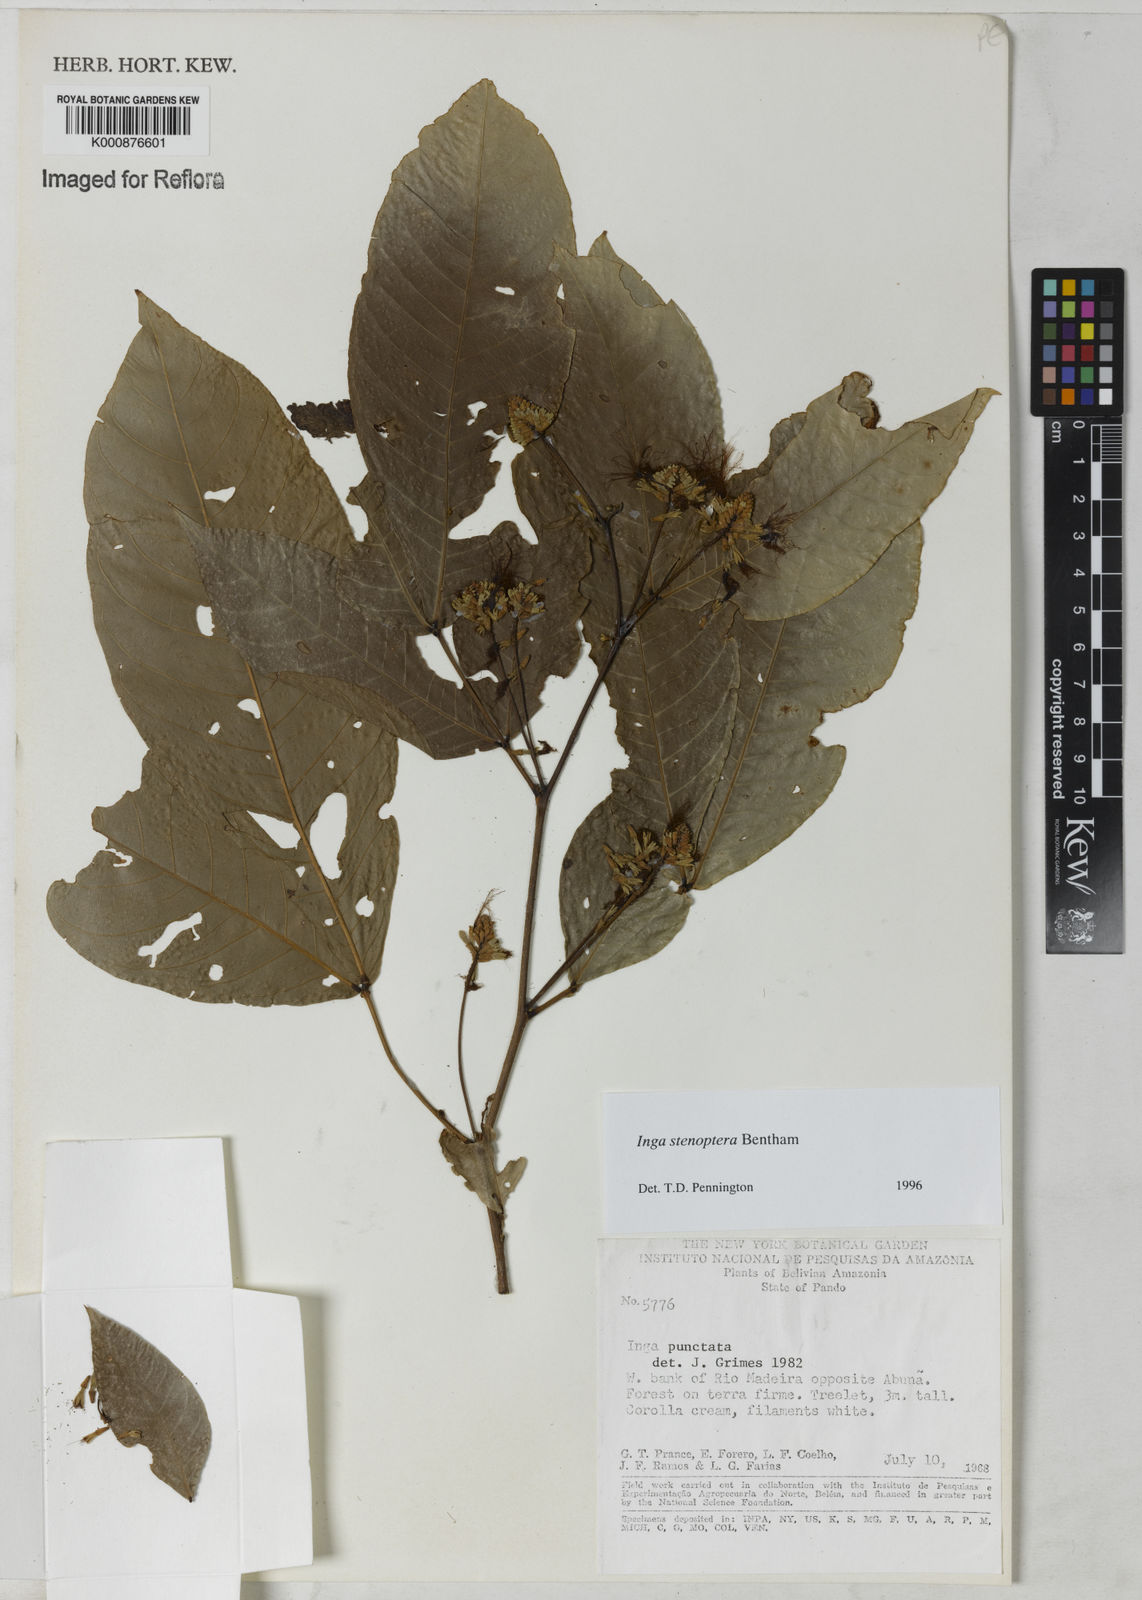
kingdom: Plantae
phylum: Tracheophyta
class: Magnoliopsida
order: Fabales
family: Fabaceae
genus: Inga
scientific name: Inga stenoptera
